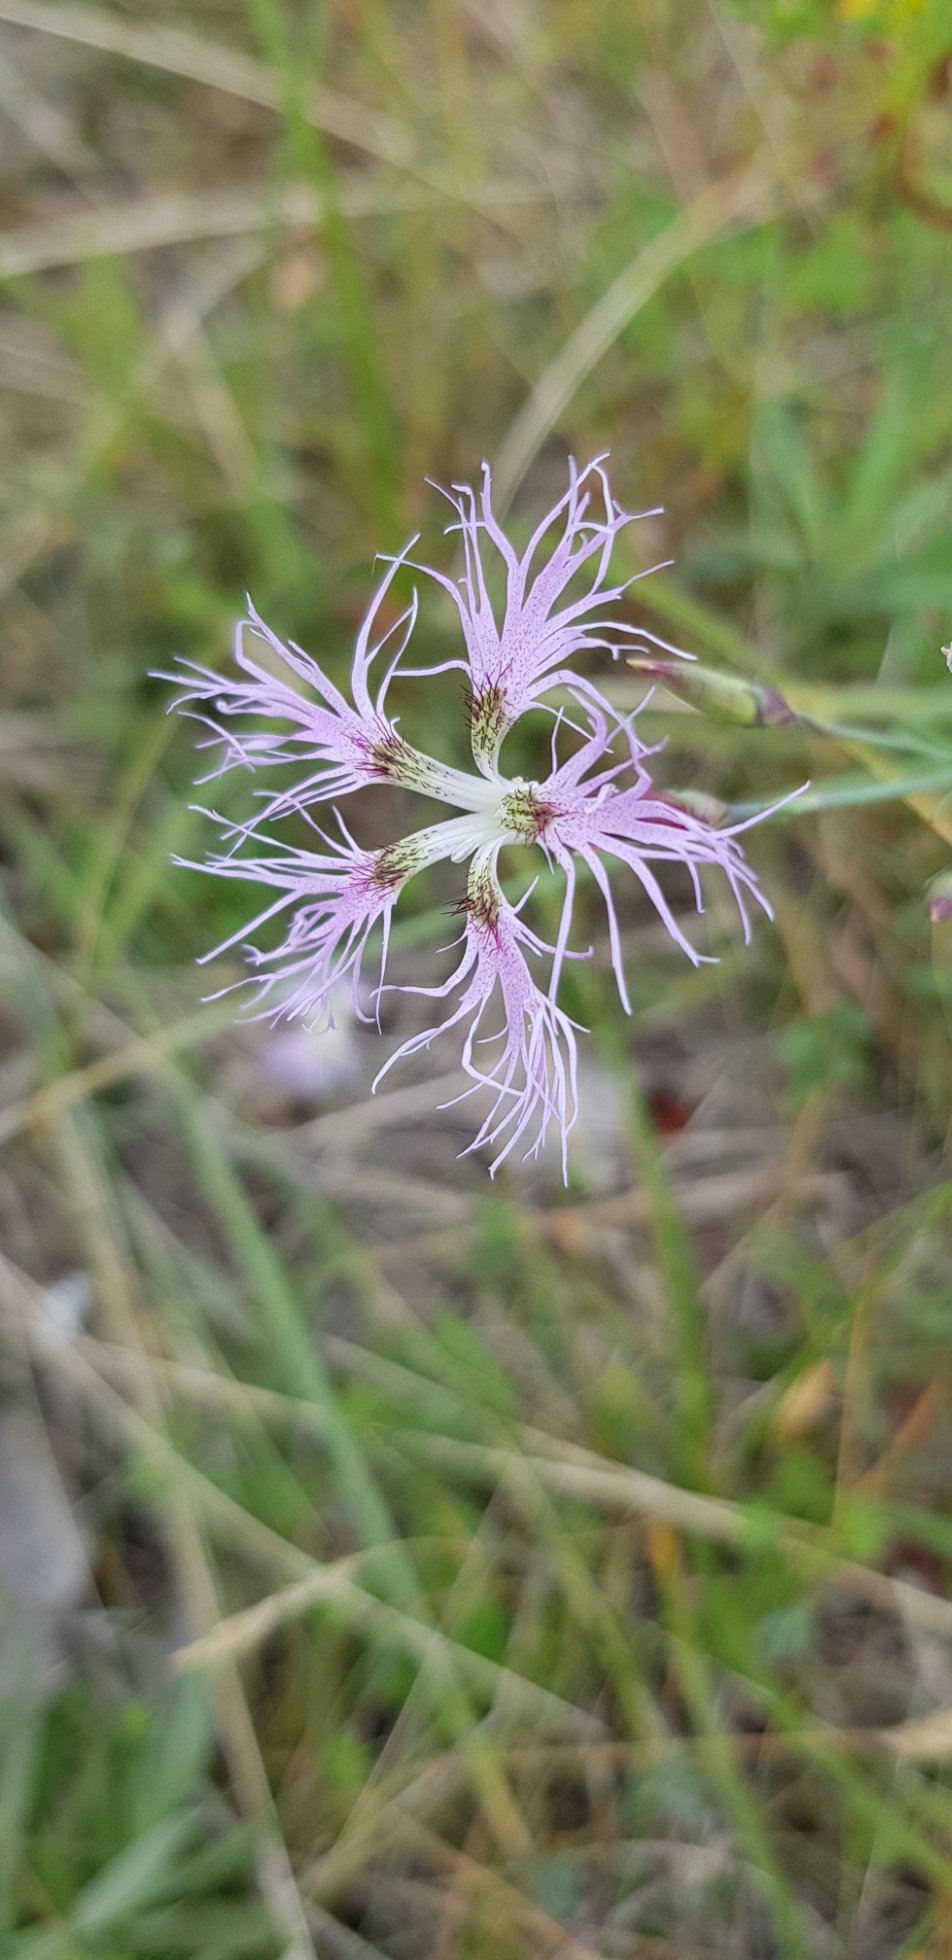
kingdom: Plantae
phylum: Tracheophyta
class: Magnoliopsida
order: Caryophyllales
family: Caryophyllaceae
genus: Dianthus
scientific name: Dianthus superbus
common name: Strand-nellike
